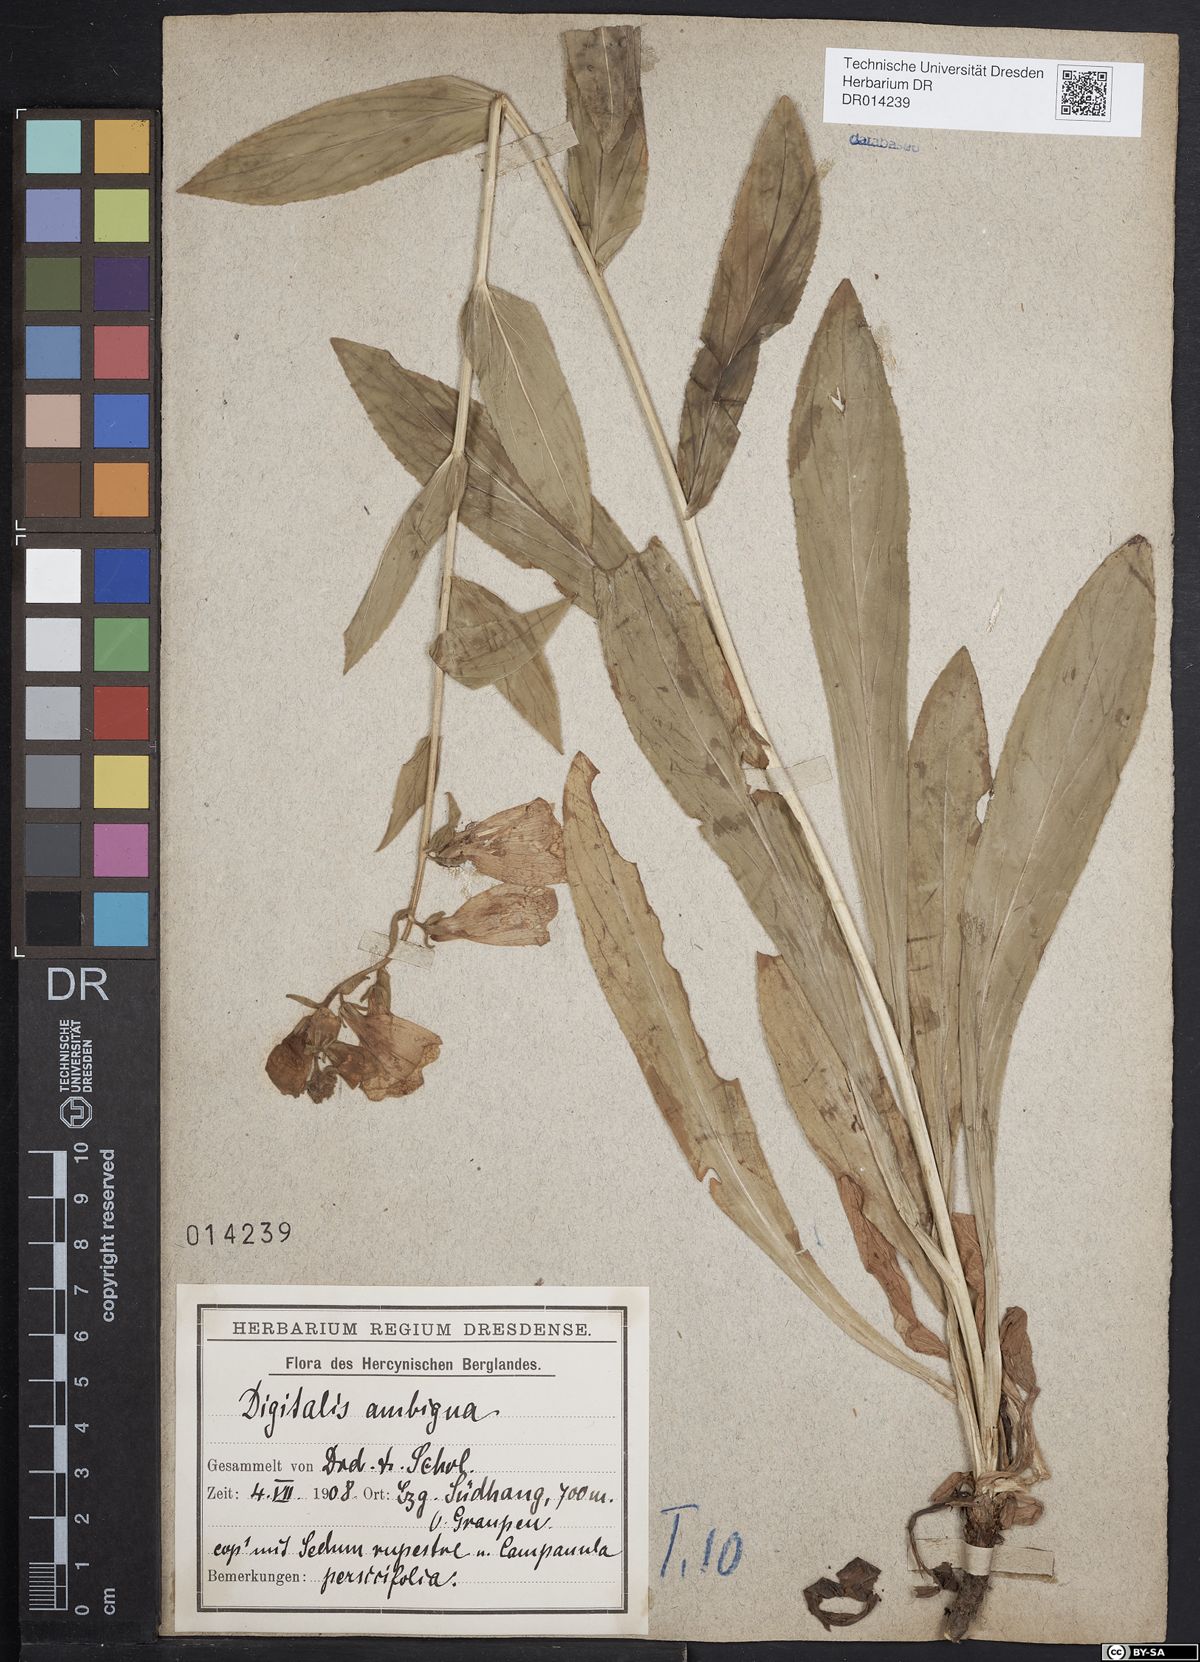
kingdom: Plantae
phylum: Tracheophyta
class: Magnoliopsida
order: Lamiales
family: Plantaginaceae
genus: Digitalis
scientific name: Digitalis grandiflora
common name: Yellow foxglove
